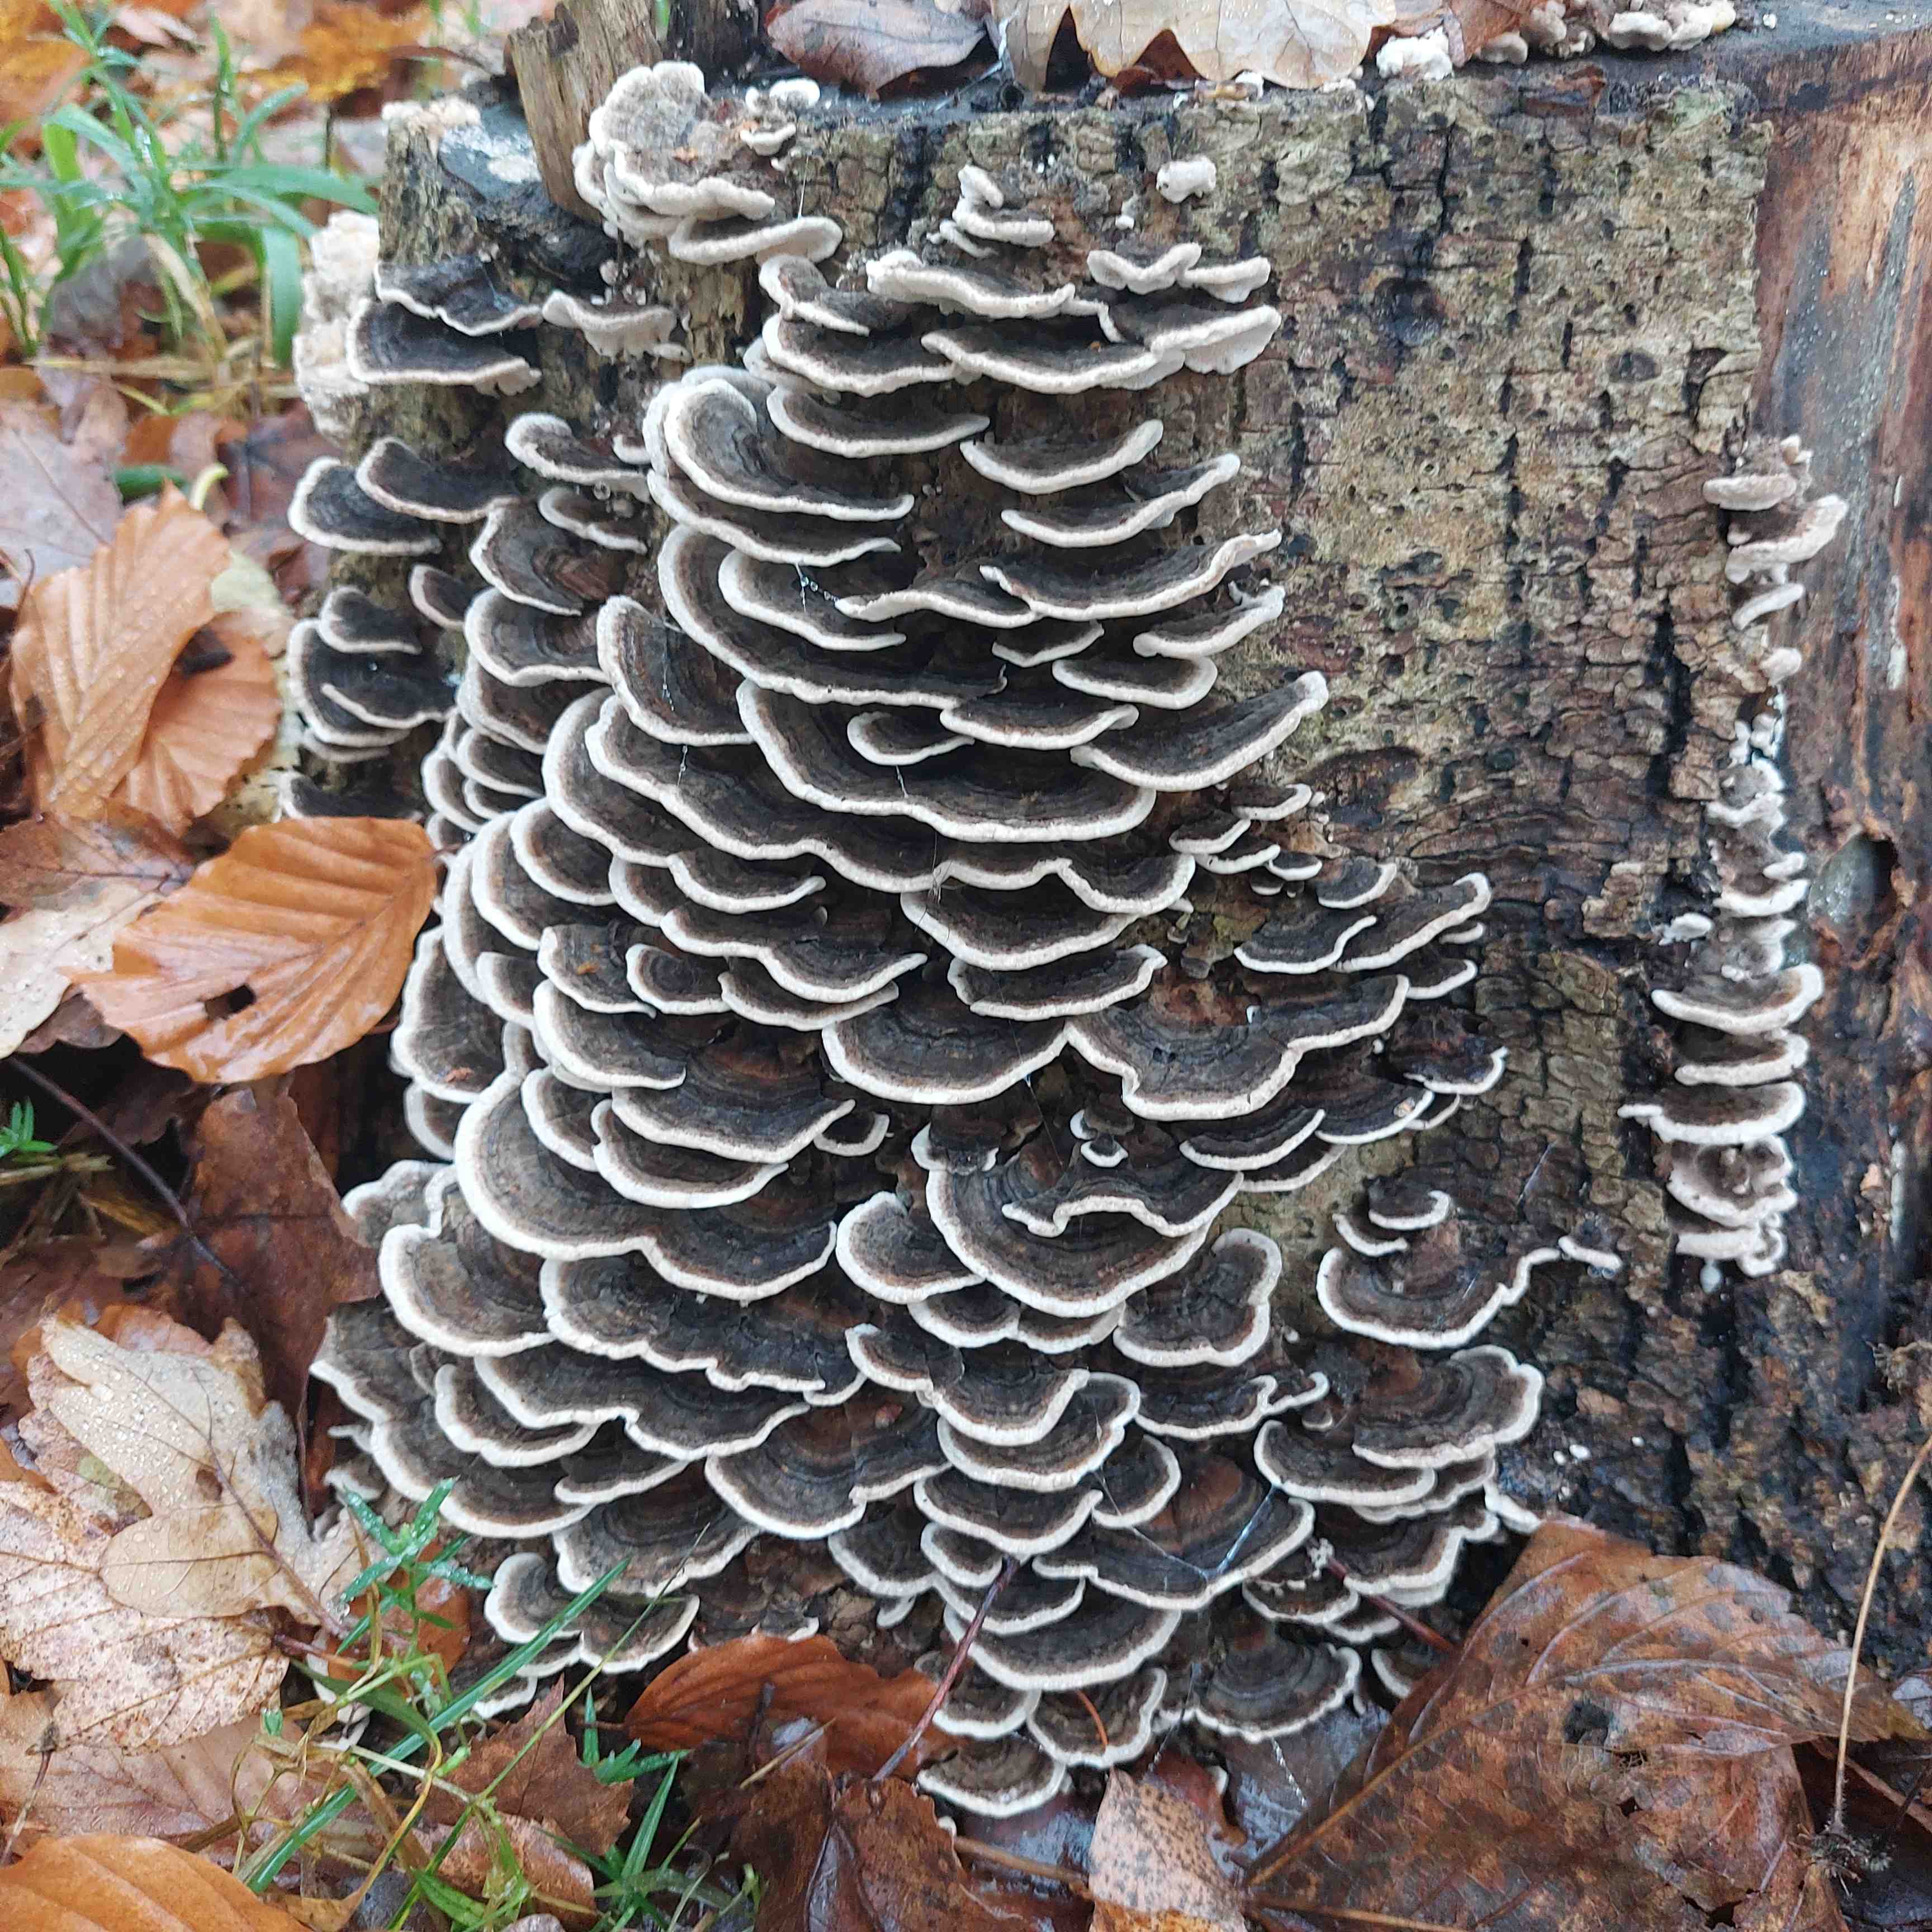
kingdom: Fungi
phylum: Basidiomycota
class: Agaricomycetes
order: Polyporales
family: Polyporaceae
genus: Trametes
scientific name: Trametes versicolor
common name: broget læderporesvamp
